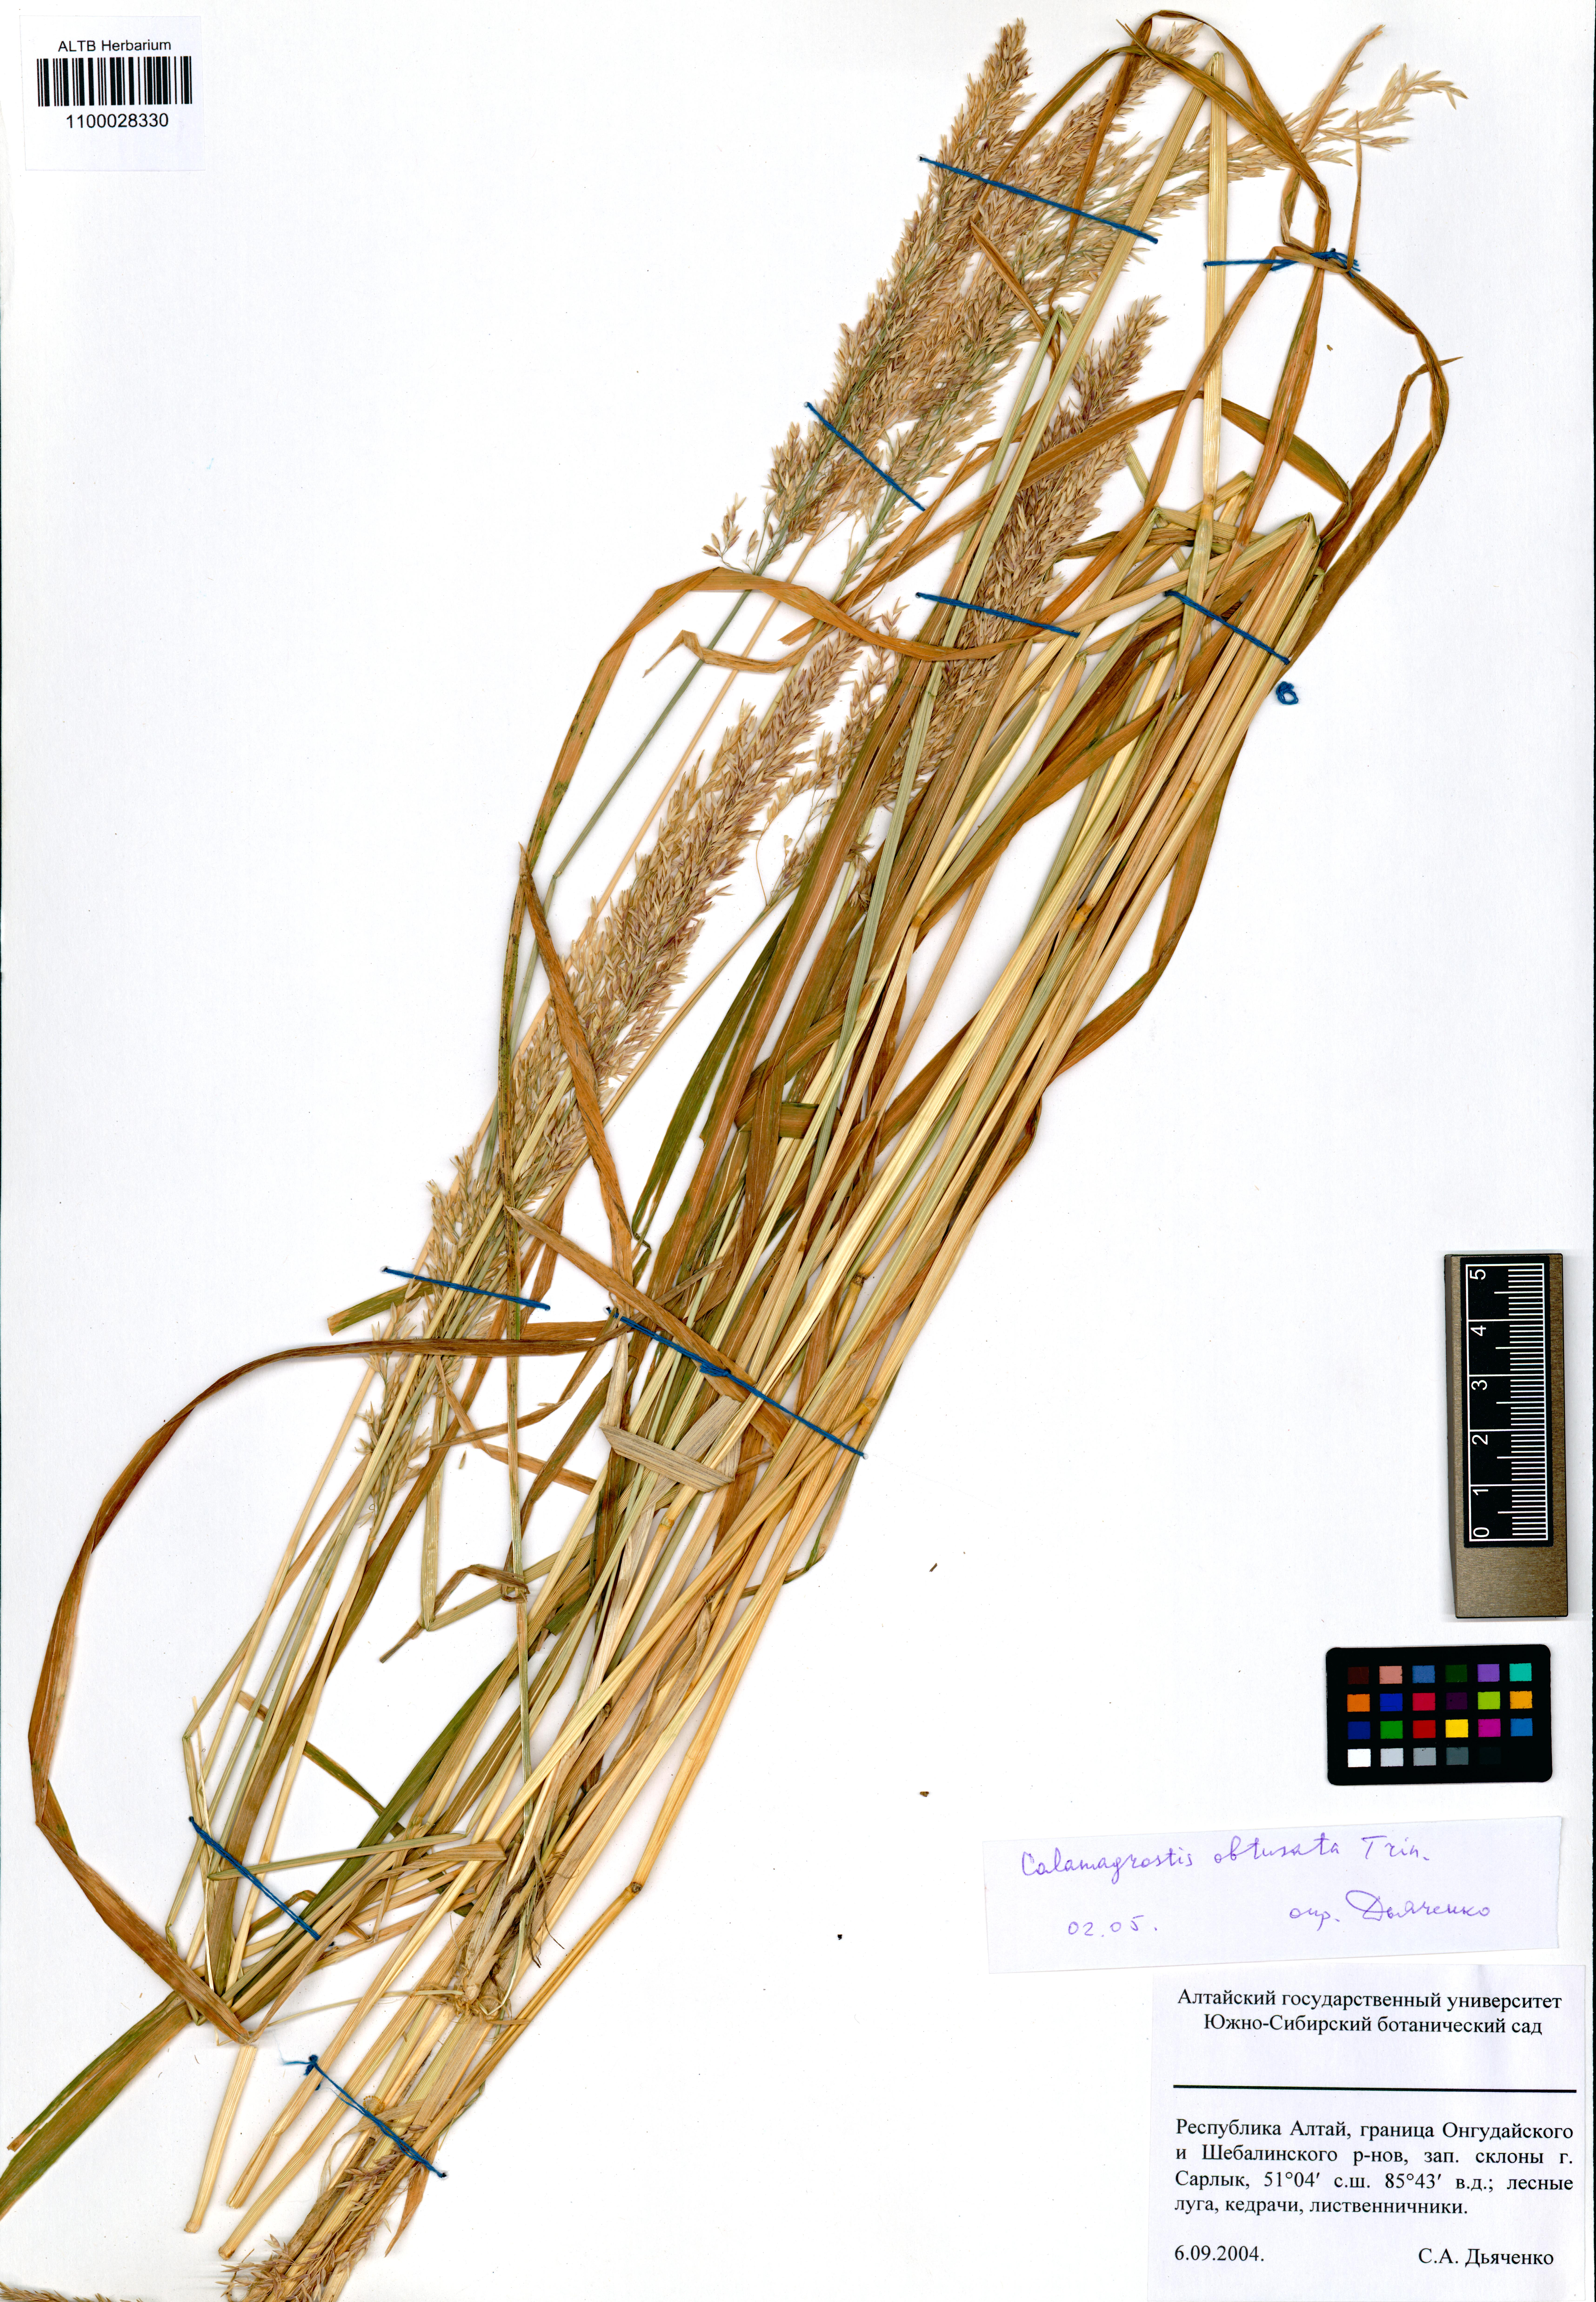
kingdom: Plantae
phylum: Tracheophyta
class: Liliopsida
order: Poales
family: Poaceae
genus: Calamagrostis
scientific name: Calamagrostis obtusata
